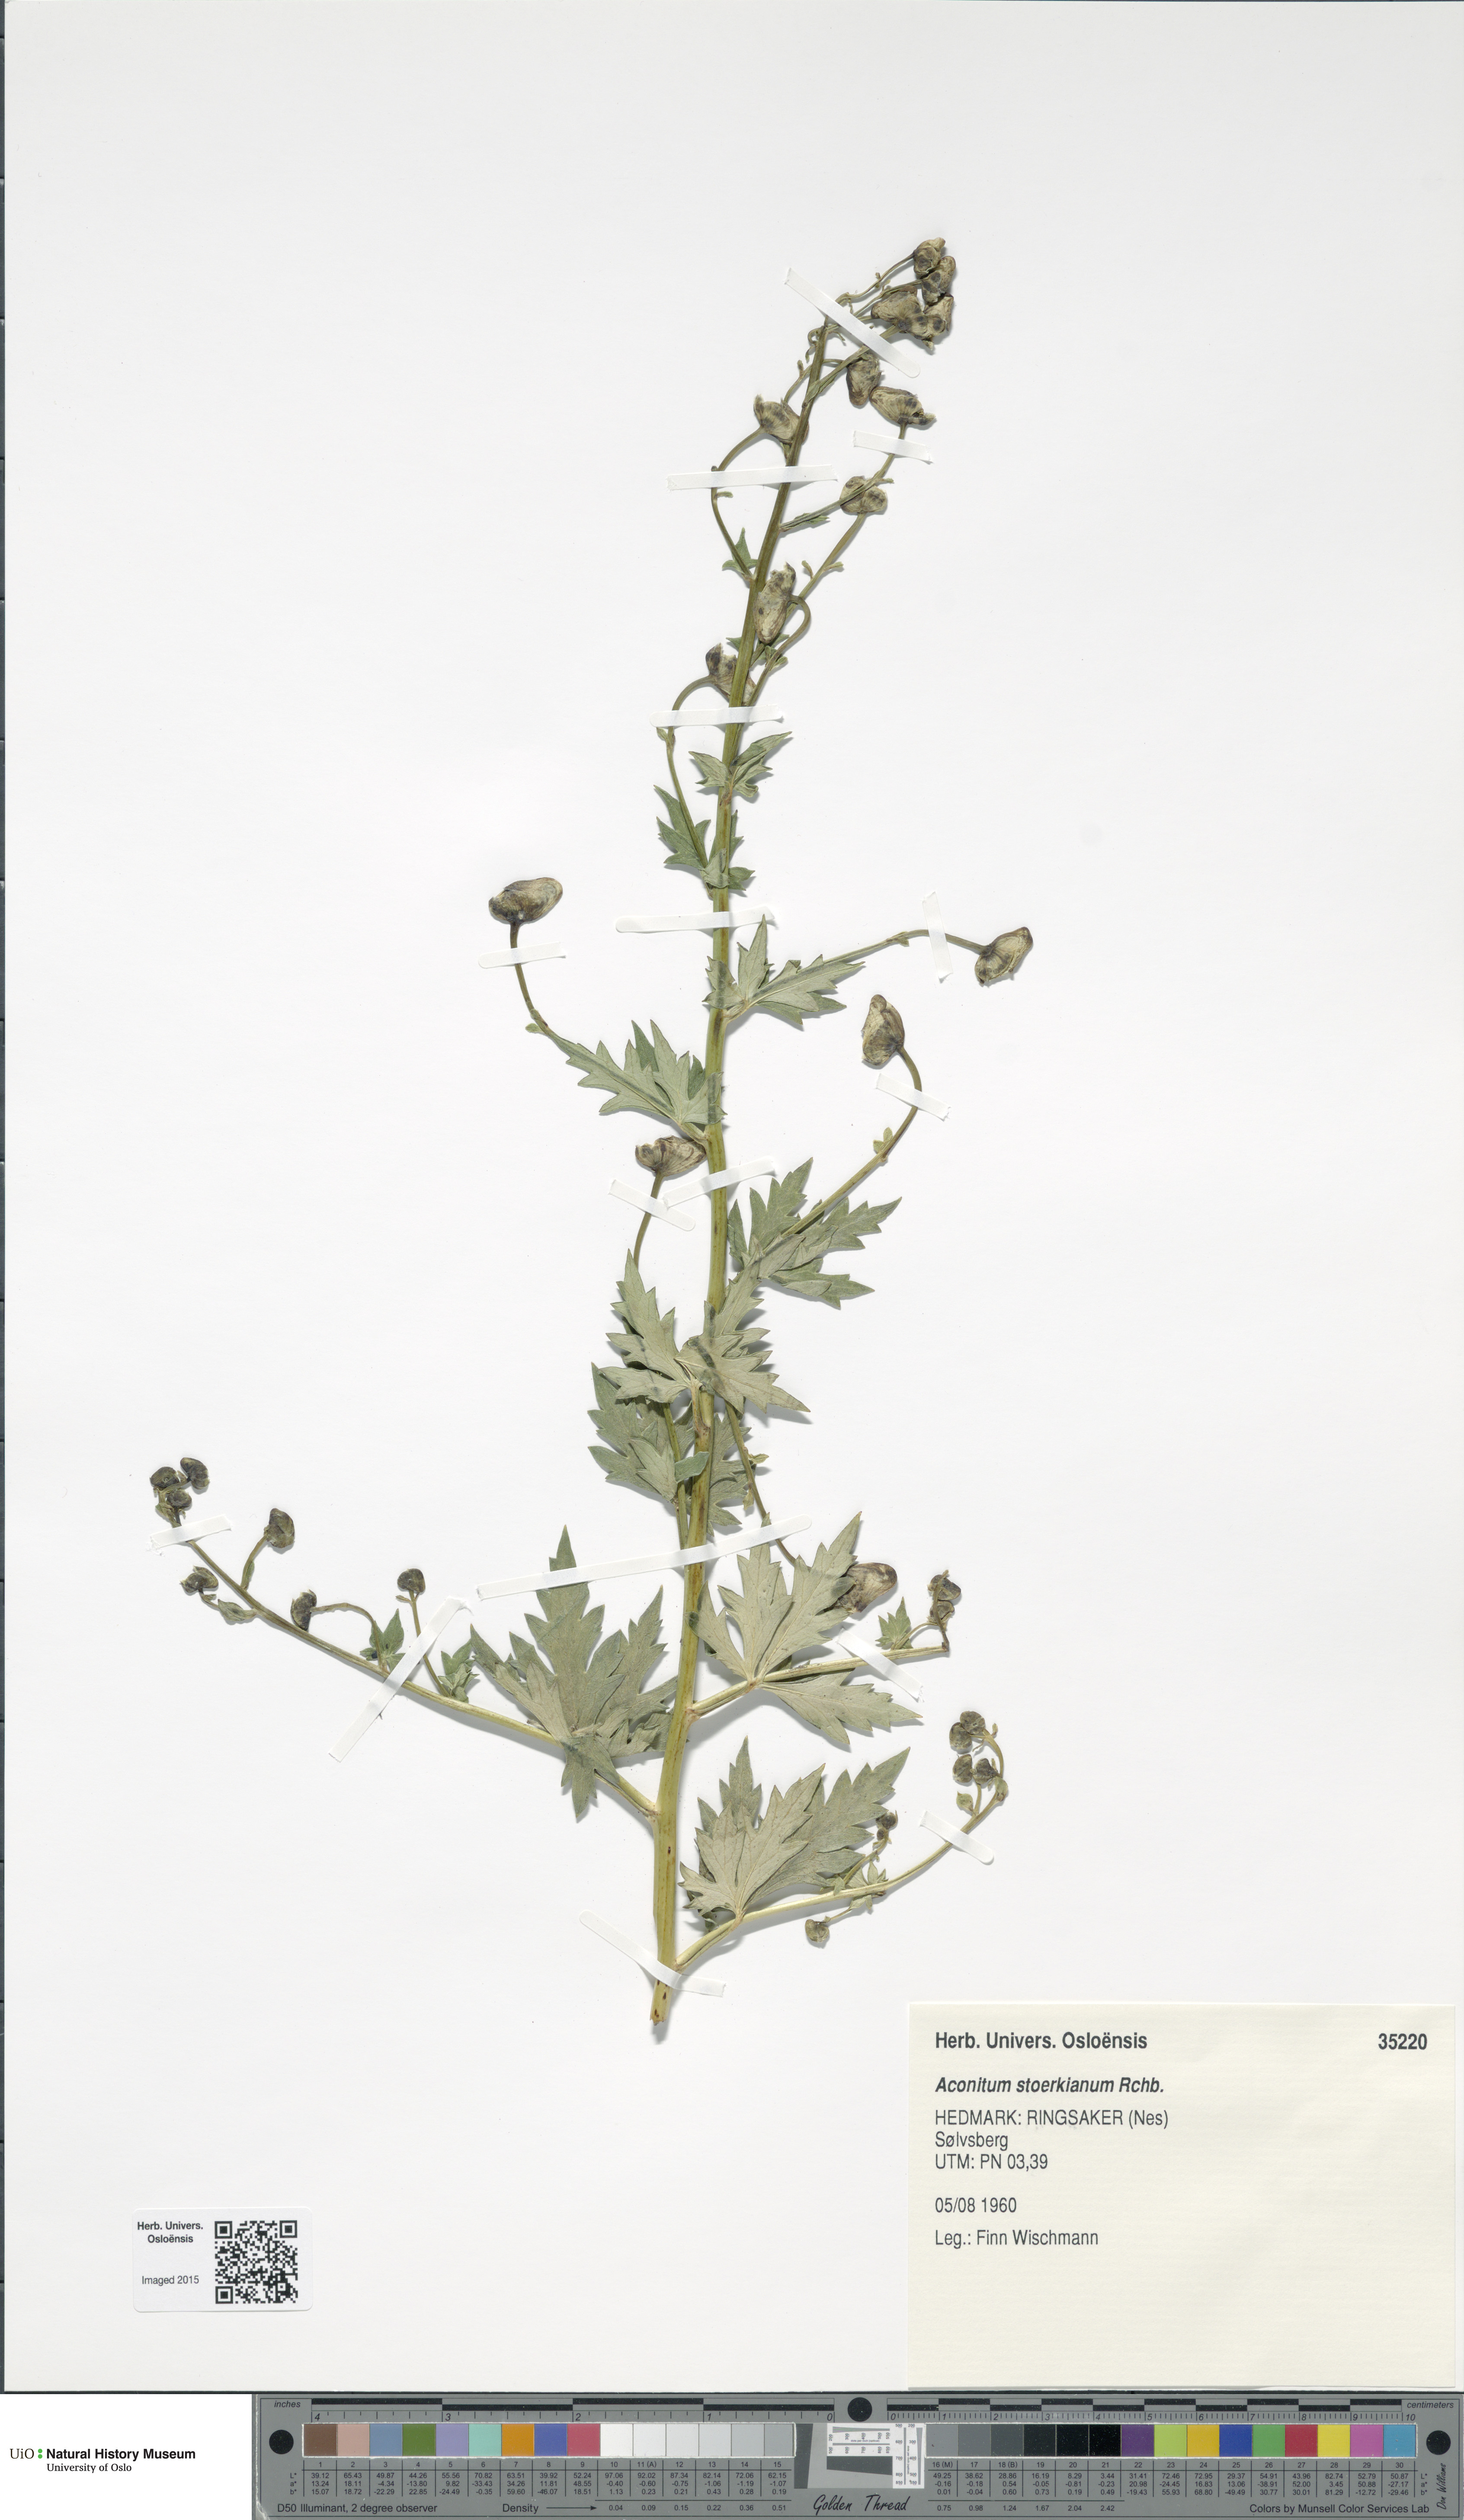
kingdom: Plantae
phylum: Tracheophyta
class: Magnoliopsida
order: Ranunculales
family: Ranunculaceae
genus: Aconitum
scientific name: Aconitum cammarum
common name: Hybrid monk's-hood
